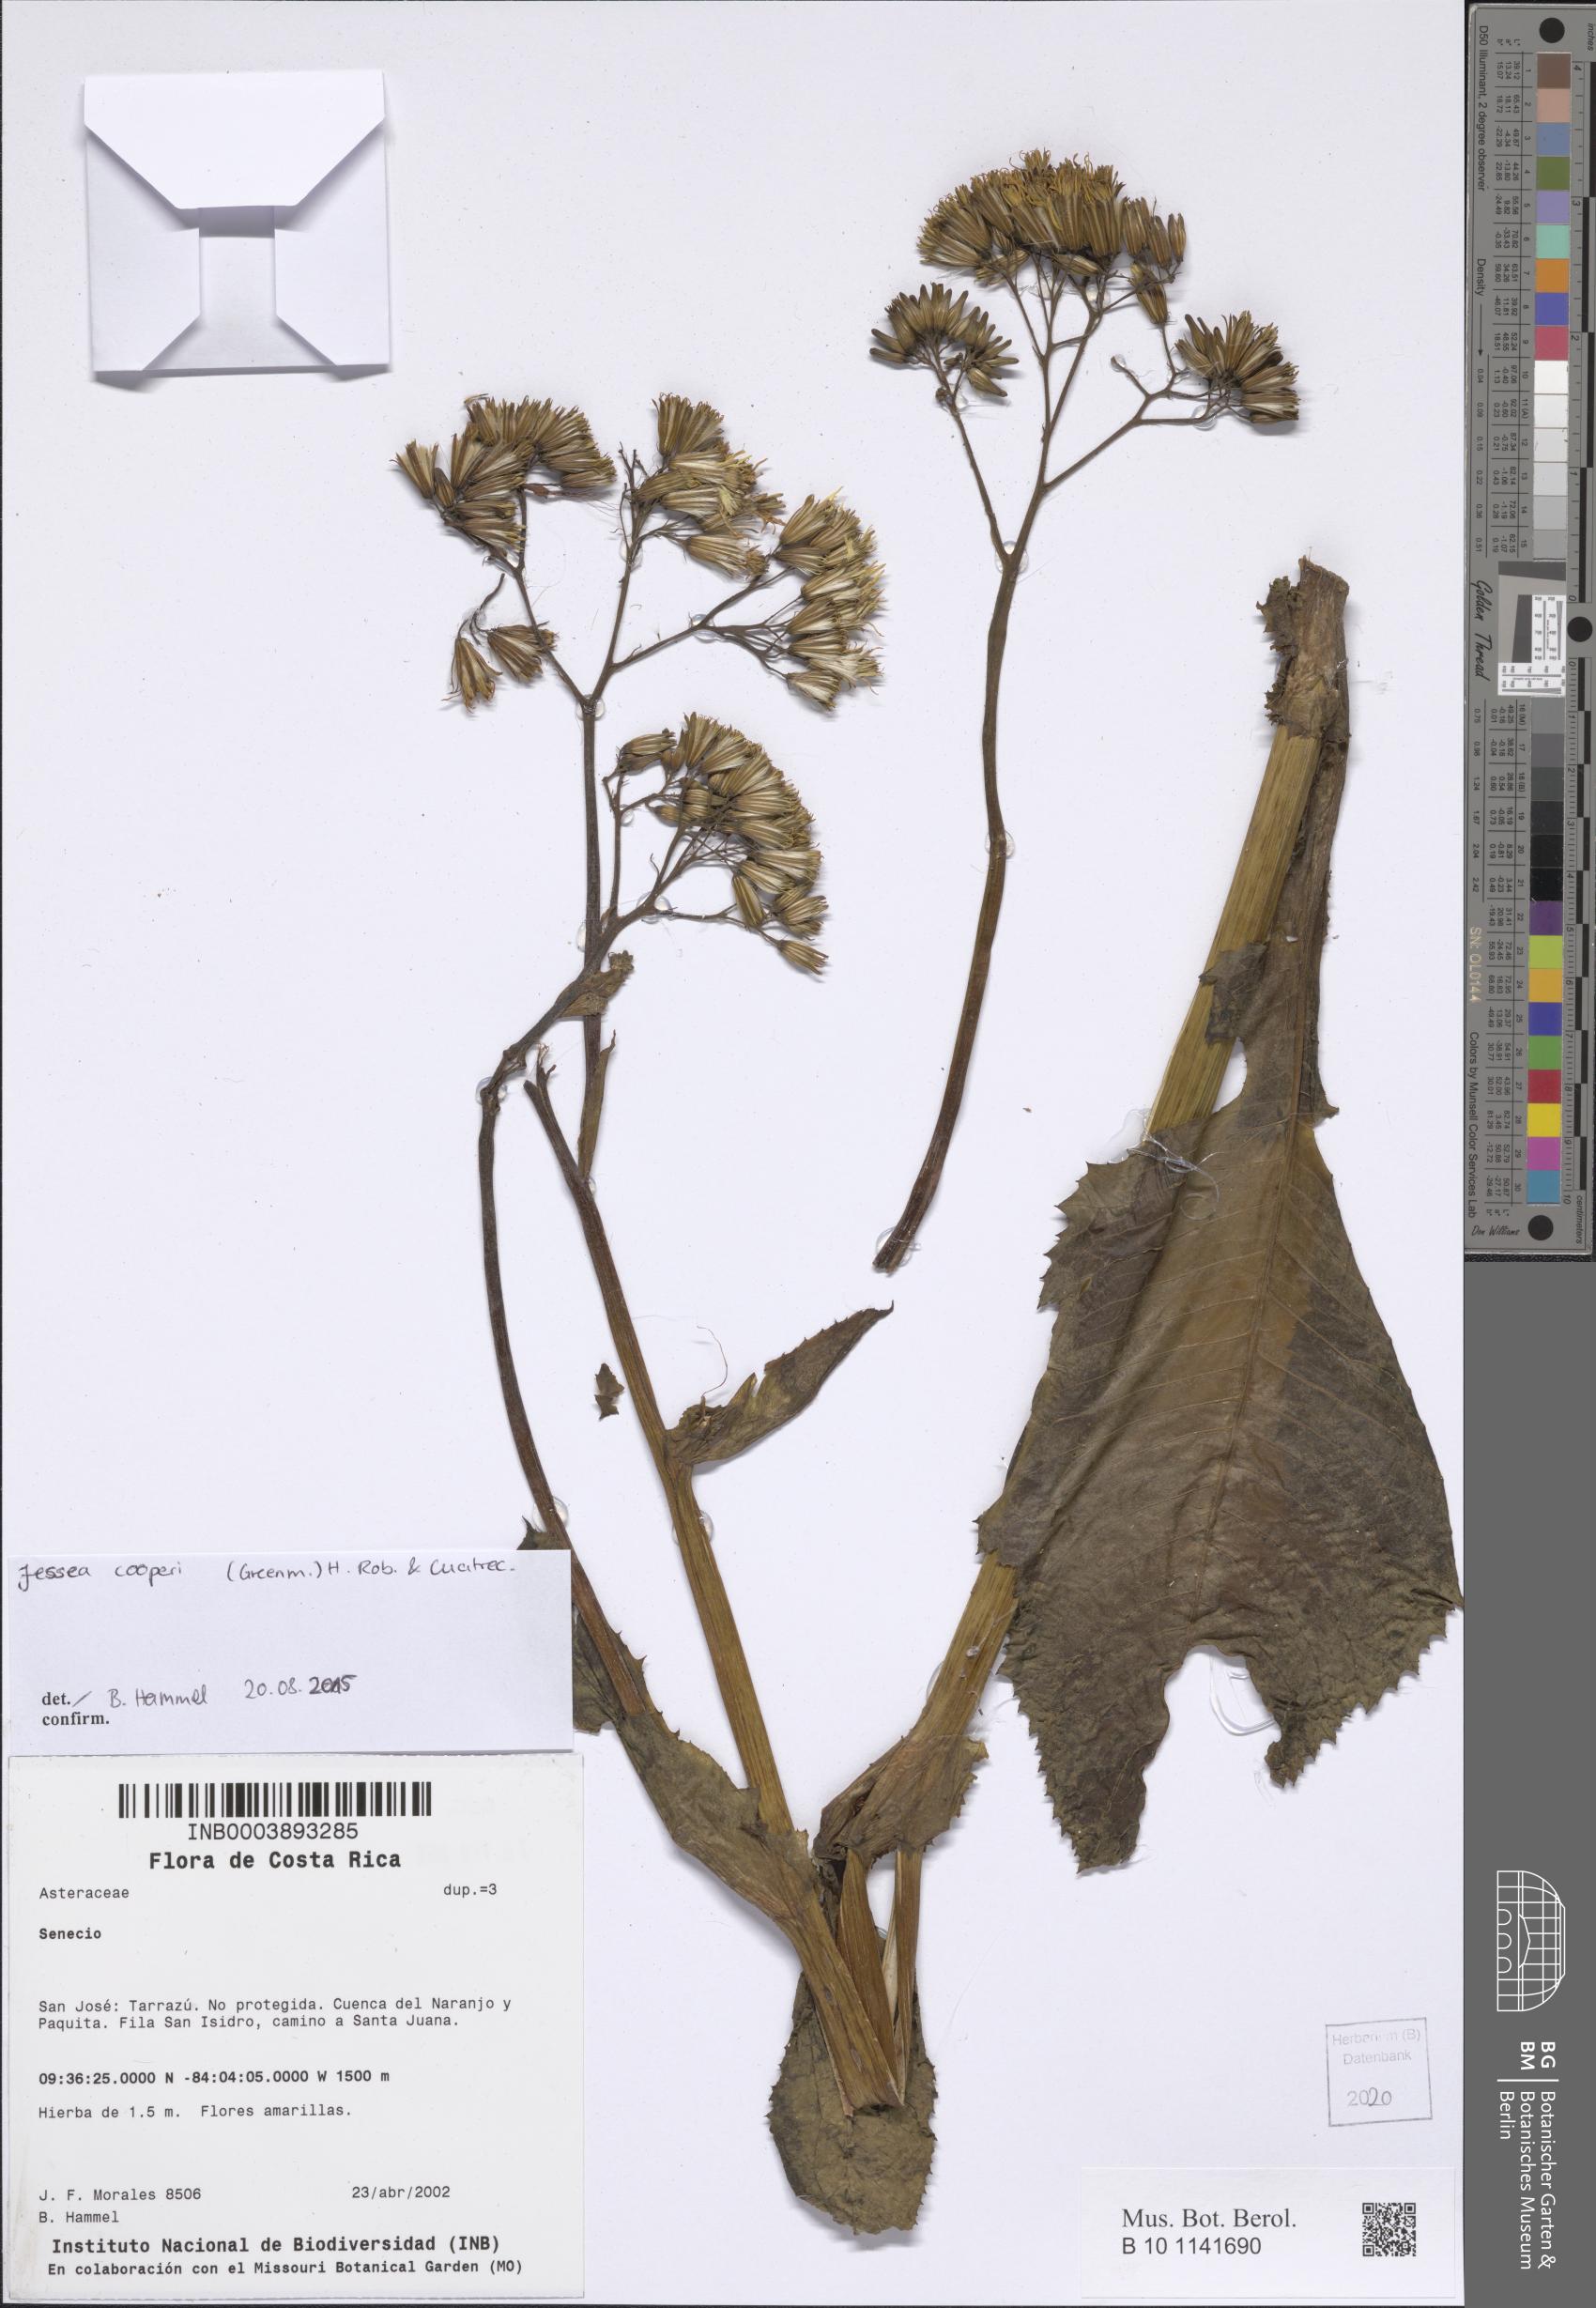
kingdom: Plantae
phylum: Tracheophyta
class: Magnoliopsida
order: Asterales
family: Asteraceae
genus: Jessea
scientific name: Jessea cooperi
